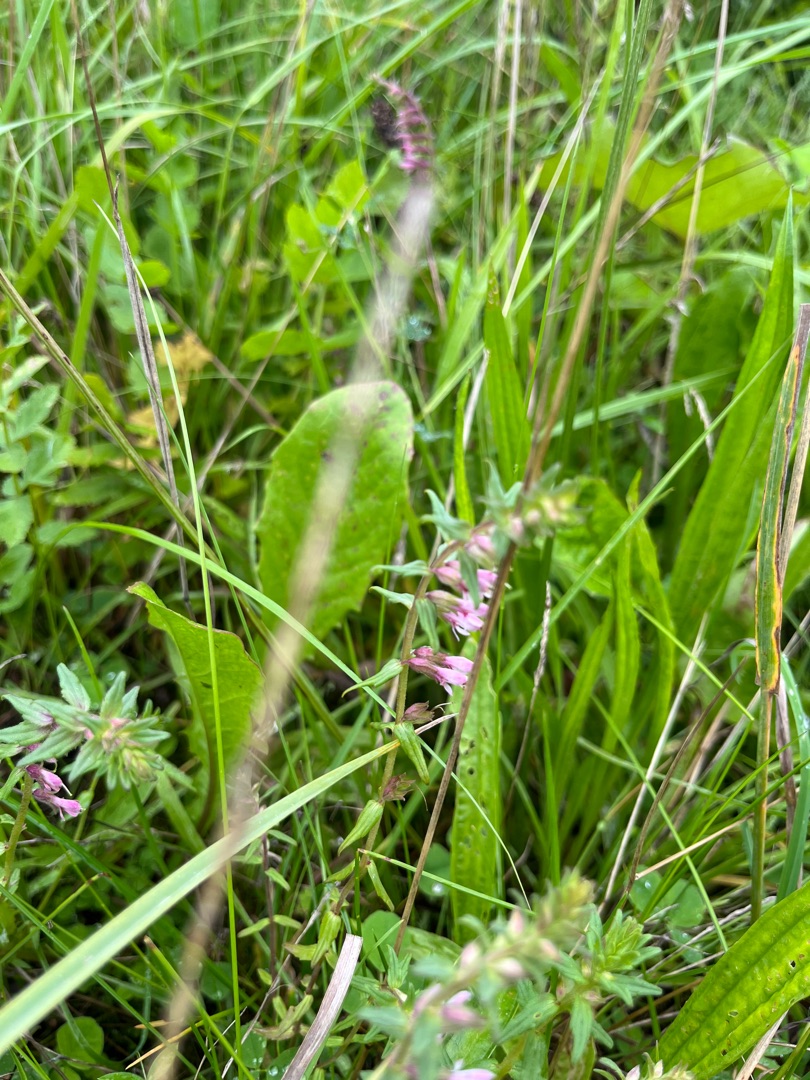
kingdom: Plantae
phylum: Tracheophyta
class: Magnoliopsida
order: Lamiales
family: Orobanchaceae
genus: Odontites
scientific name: Odontites
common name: Rødtopslægten
